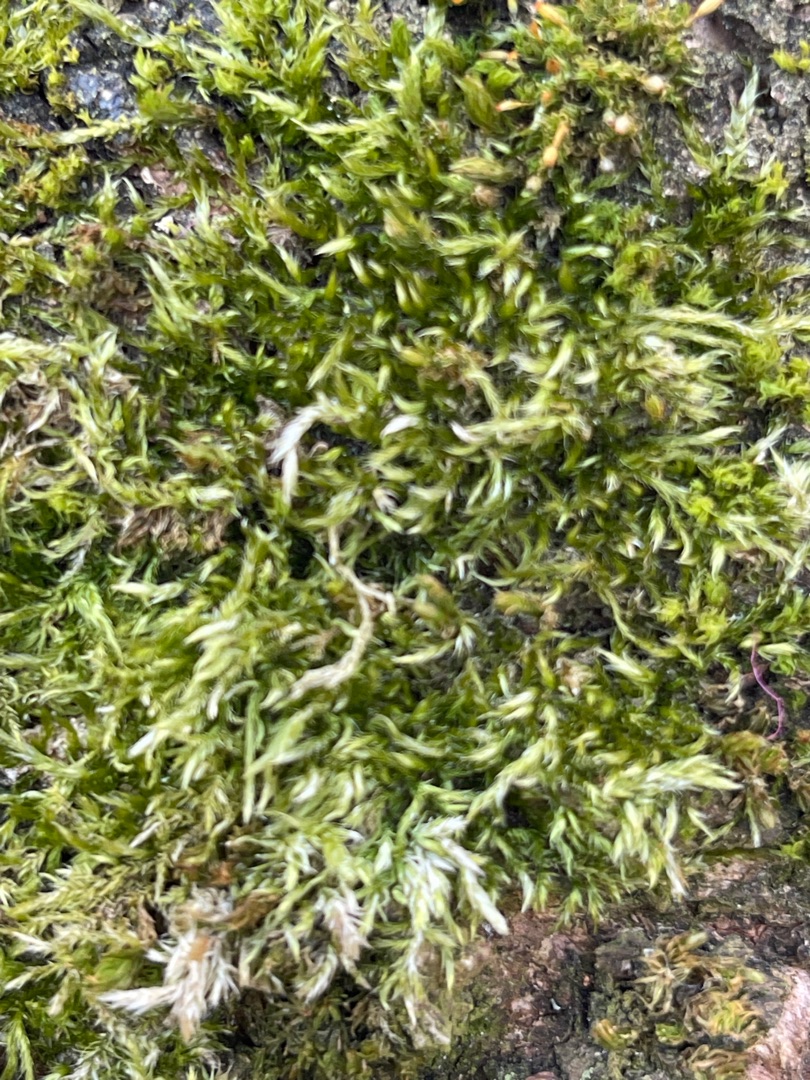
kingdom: Plantae
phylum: Bryophyta
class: Bryopsida
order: Hypnales
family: Hypnaceae
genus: Hypnum
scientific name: Hypnum
